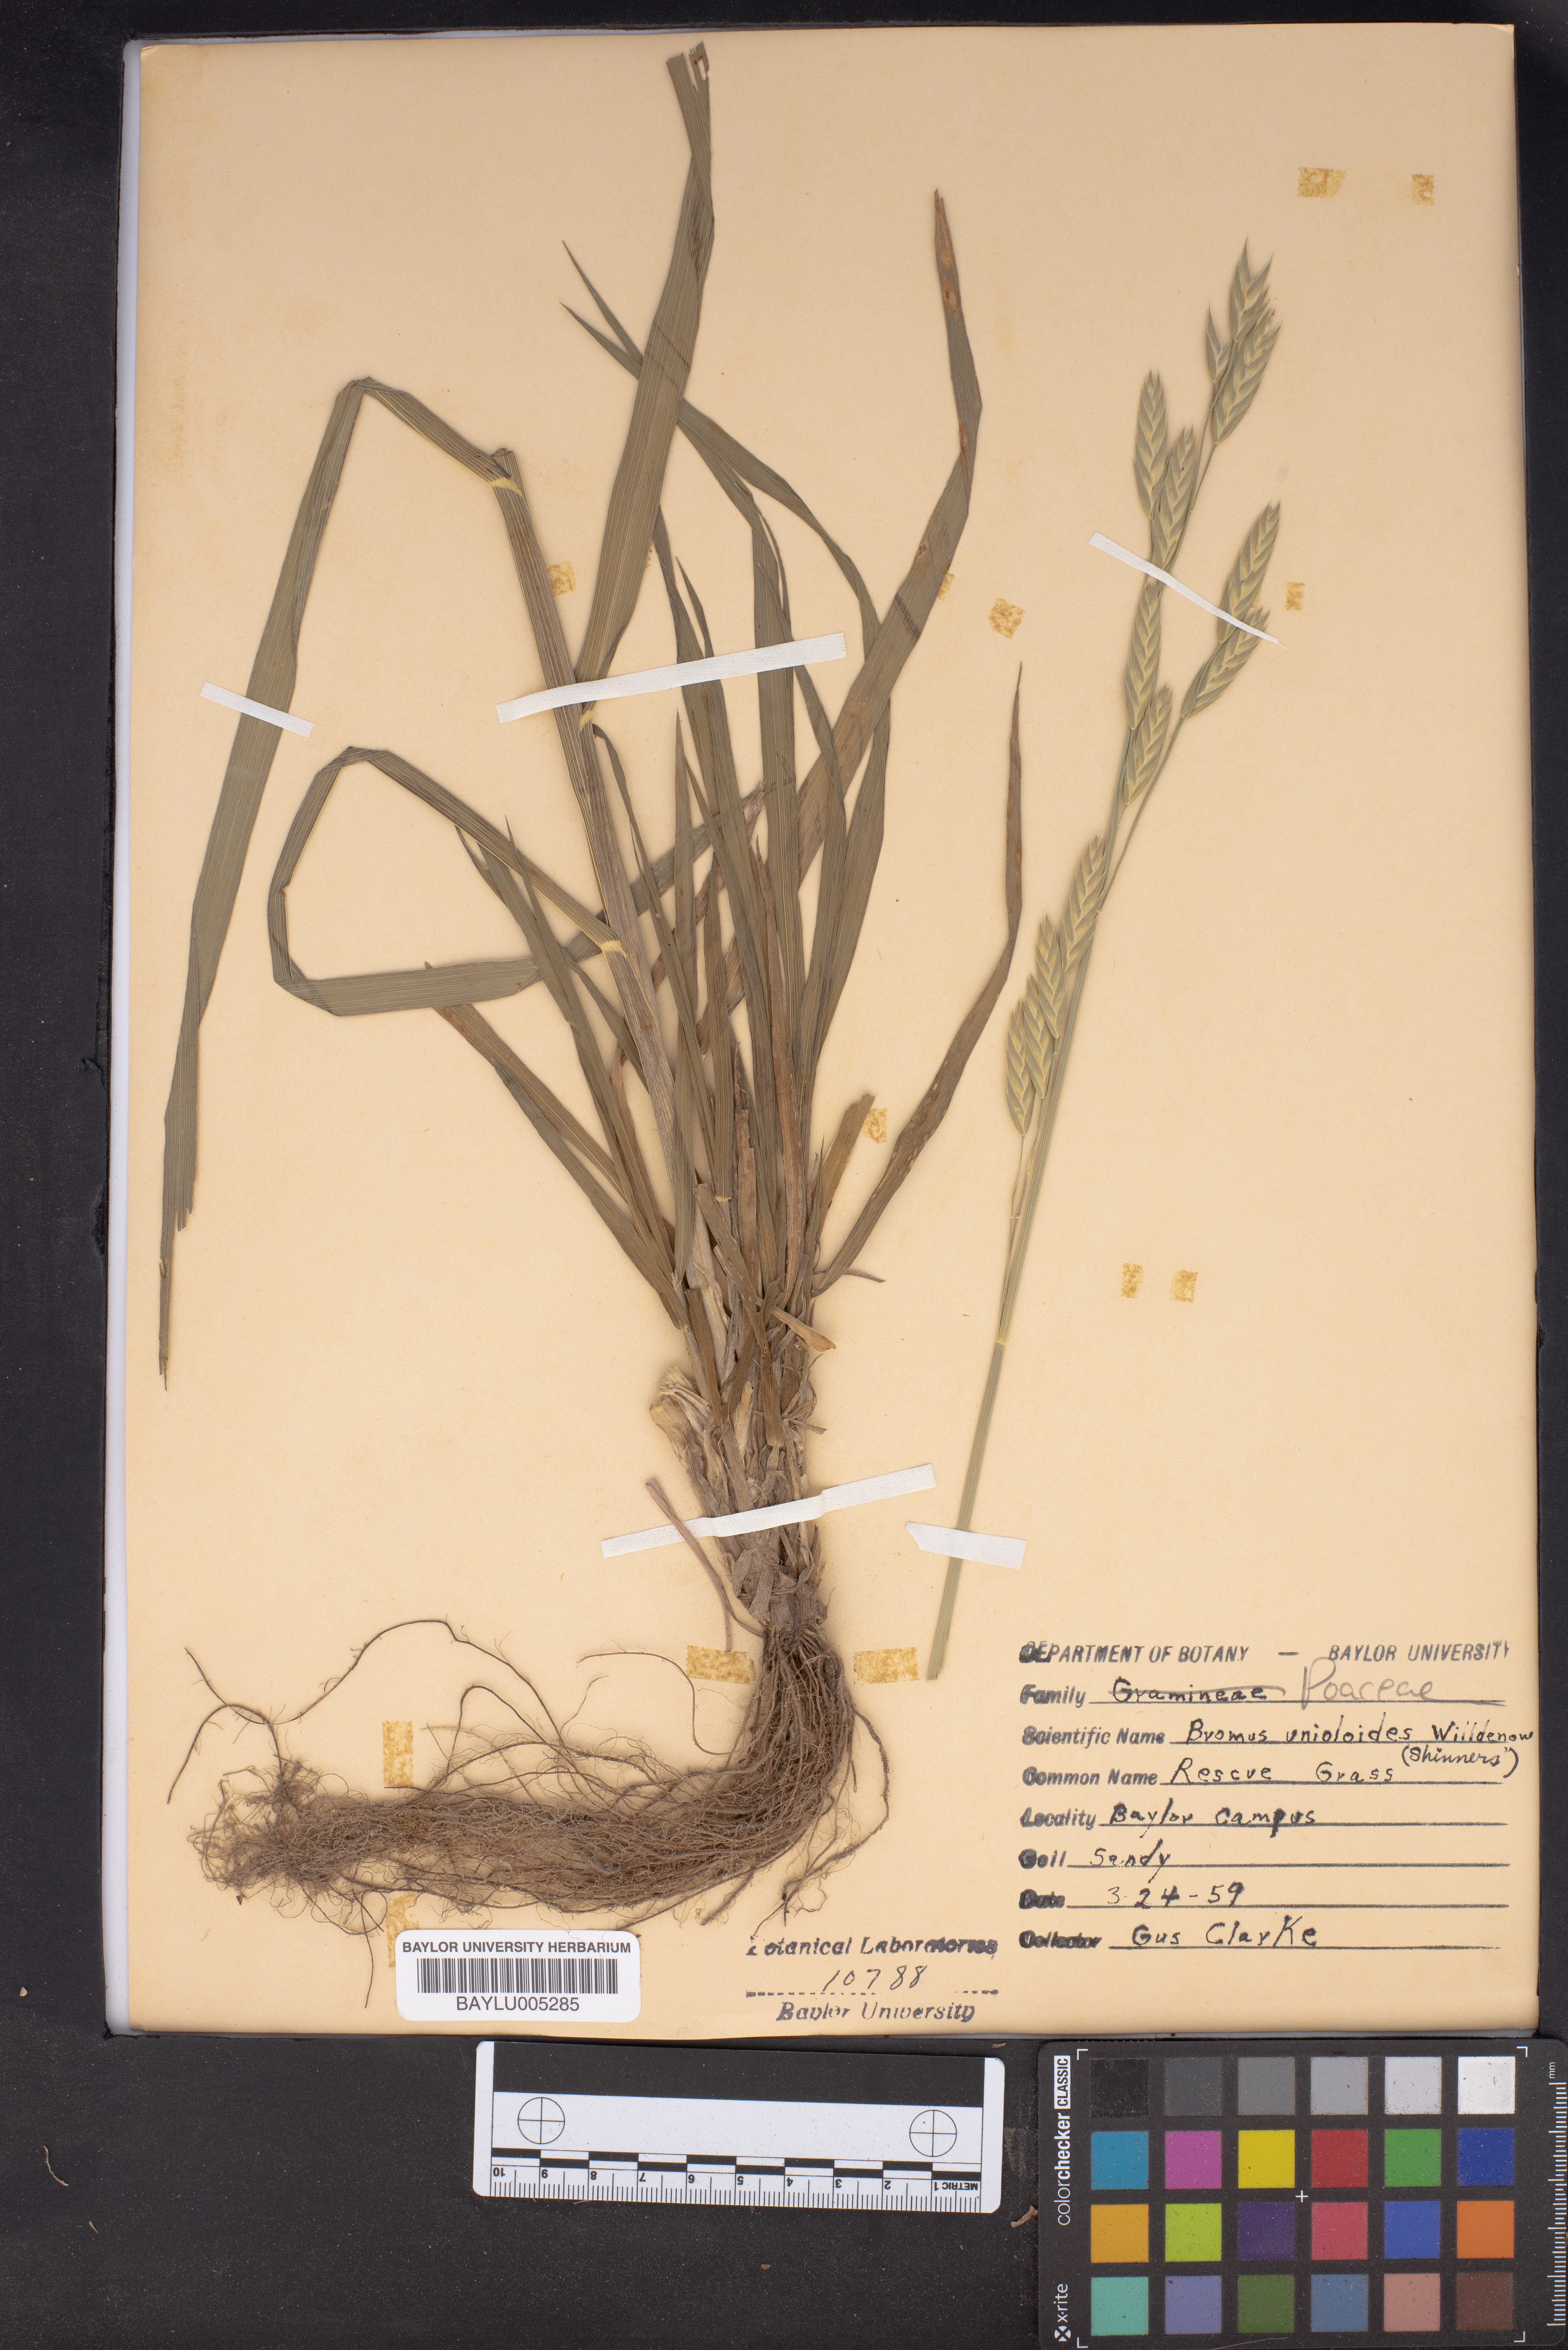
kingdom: Plantae
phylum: Tracheophyta
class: Liliopsida
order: Poales
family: Poaceae
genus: Bromus
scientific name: Bromus catharticus
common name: Rescuegrass
